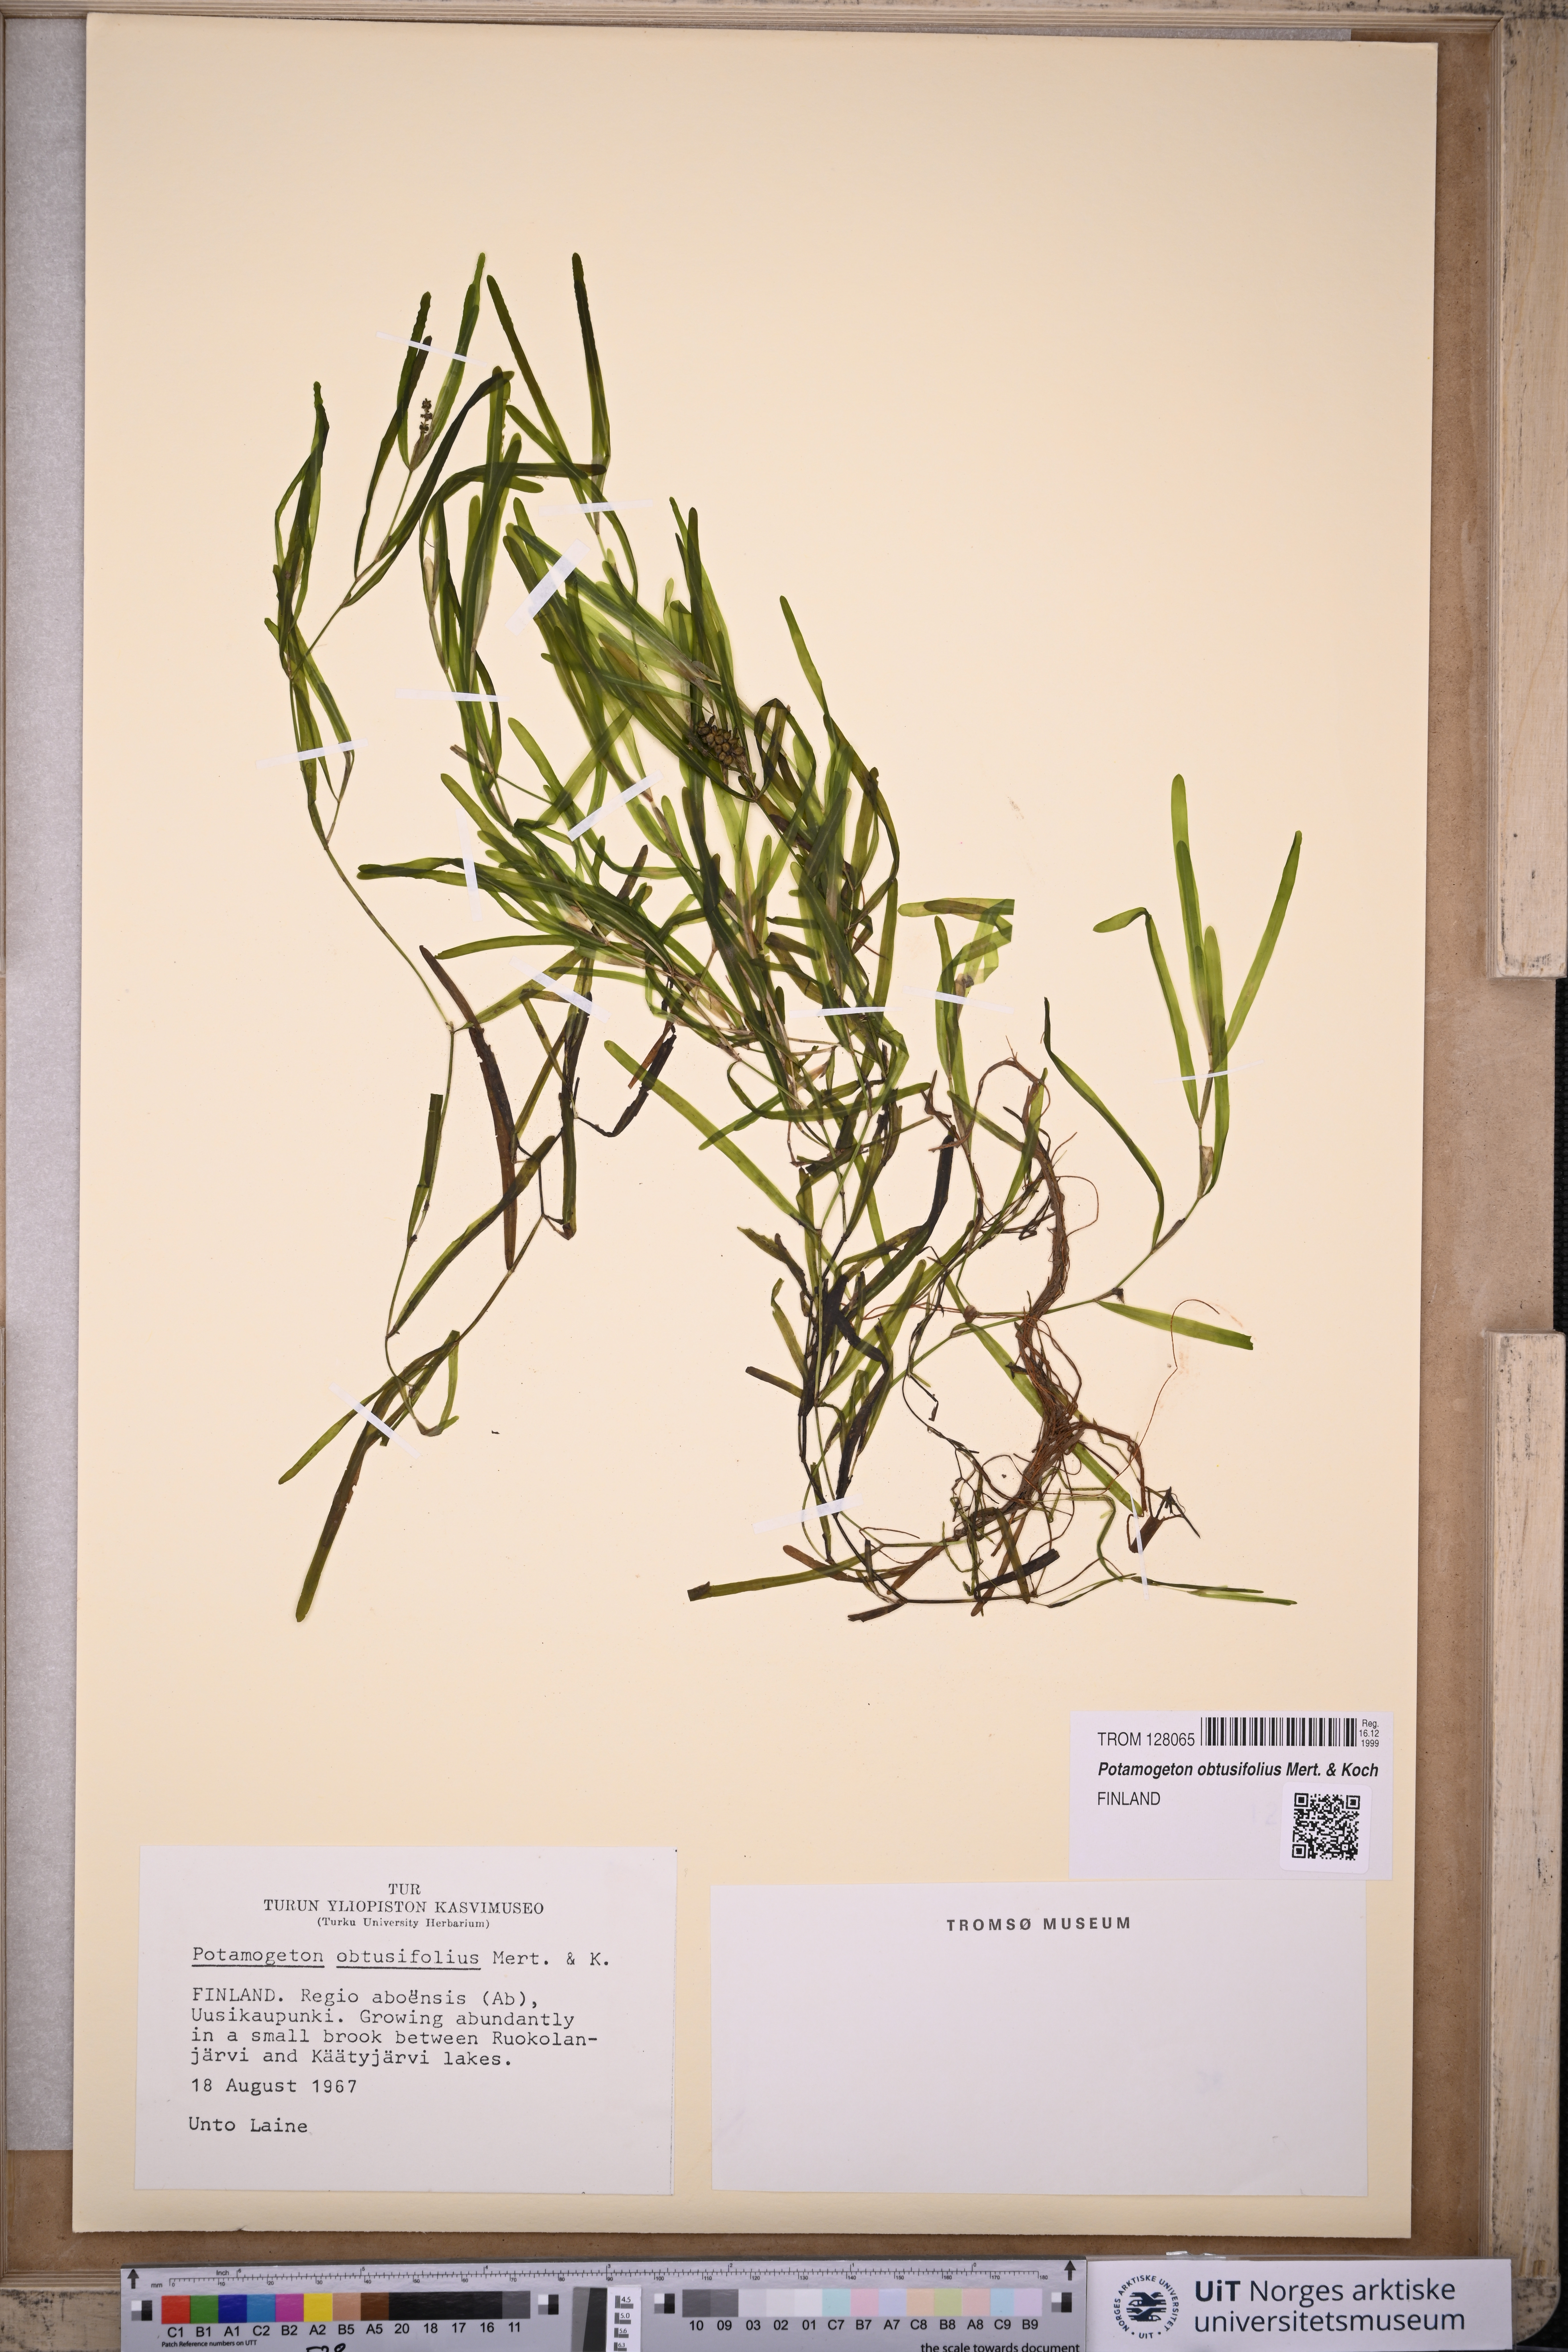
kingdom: Plantae
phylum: Tracheophyta
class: Liliopsida
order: Alismatales
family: Potamogetonaceae
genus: Potamogeton
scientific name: Potamogeton obtusifolius
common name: Blunt-leaved pondweed
